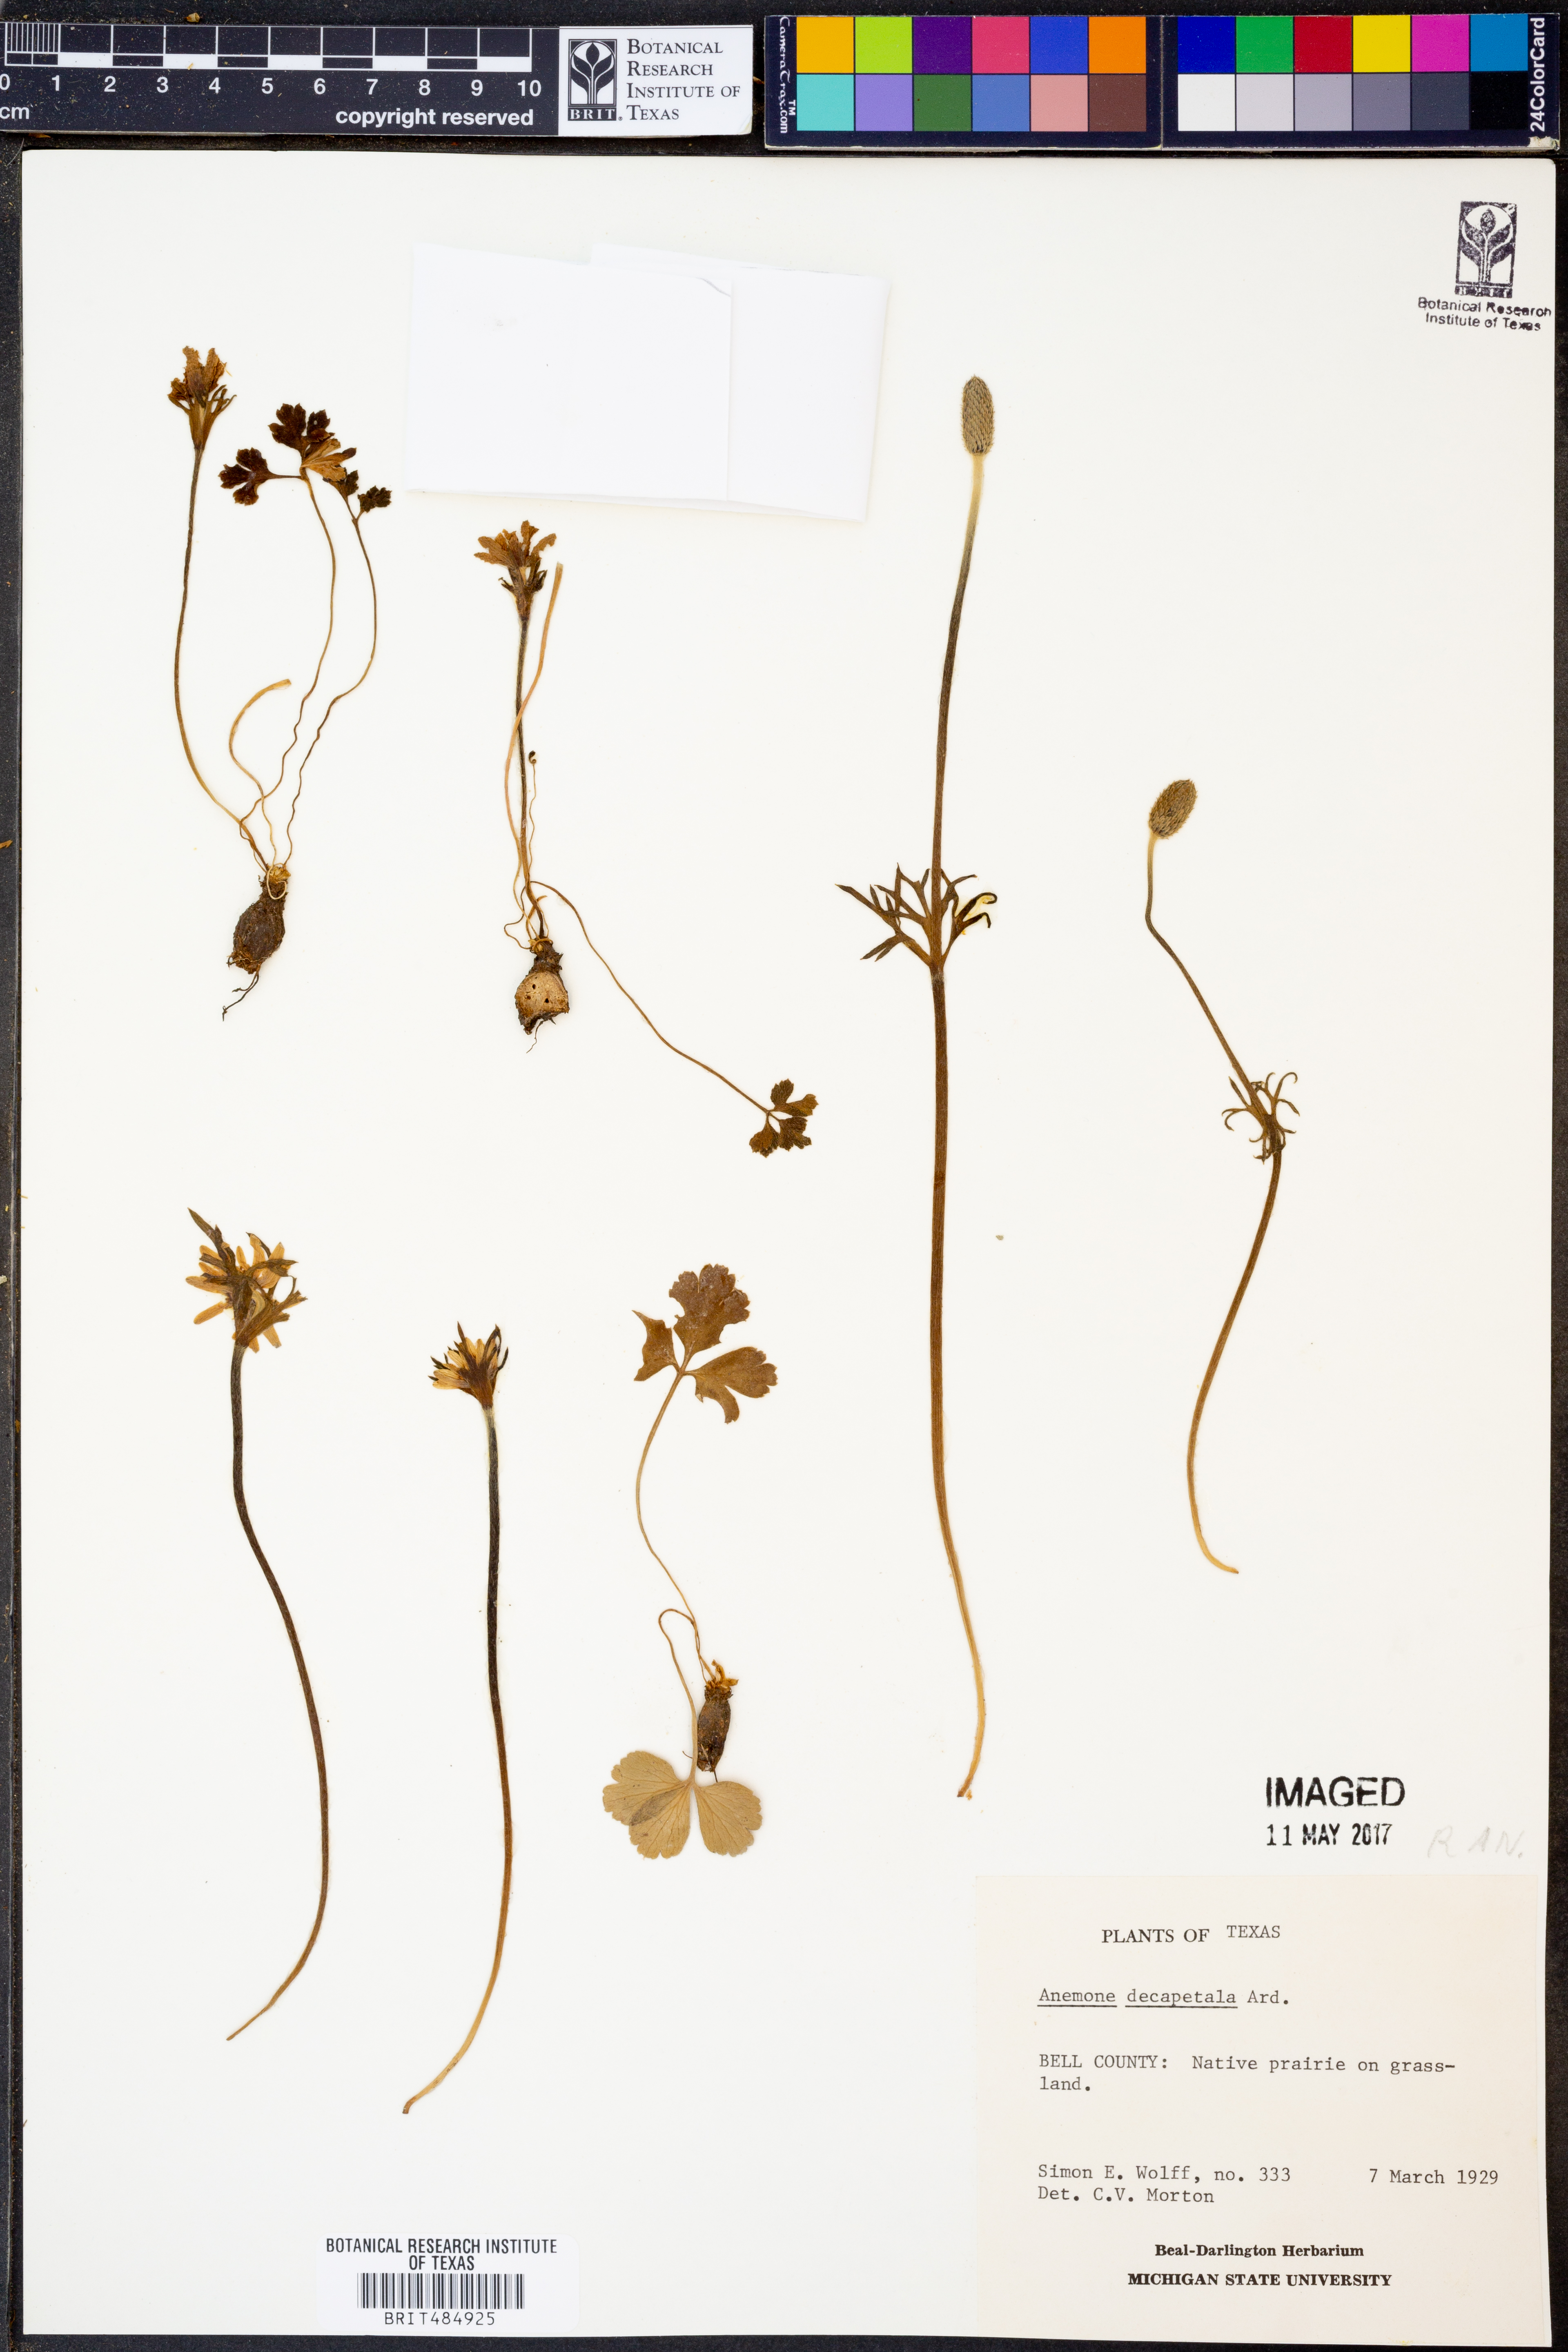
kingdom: Plantae
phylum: Tracheophyta
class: Magnoliopsida
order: Ranunculales
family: Ranunculaceae
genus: Anemone
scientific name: Anemone decapetala
